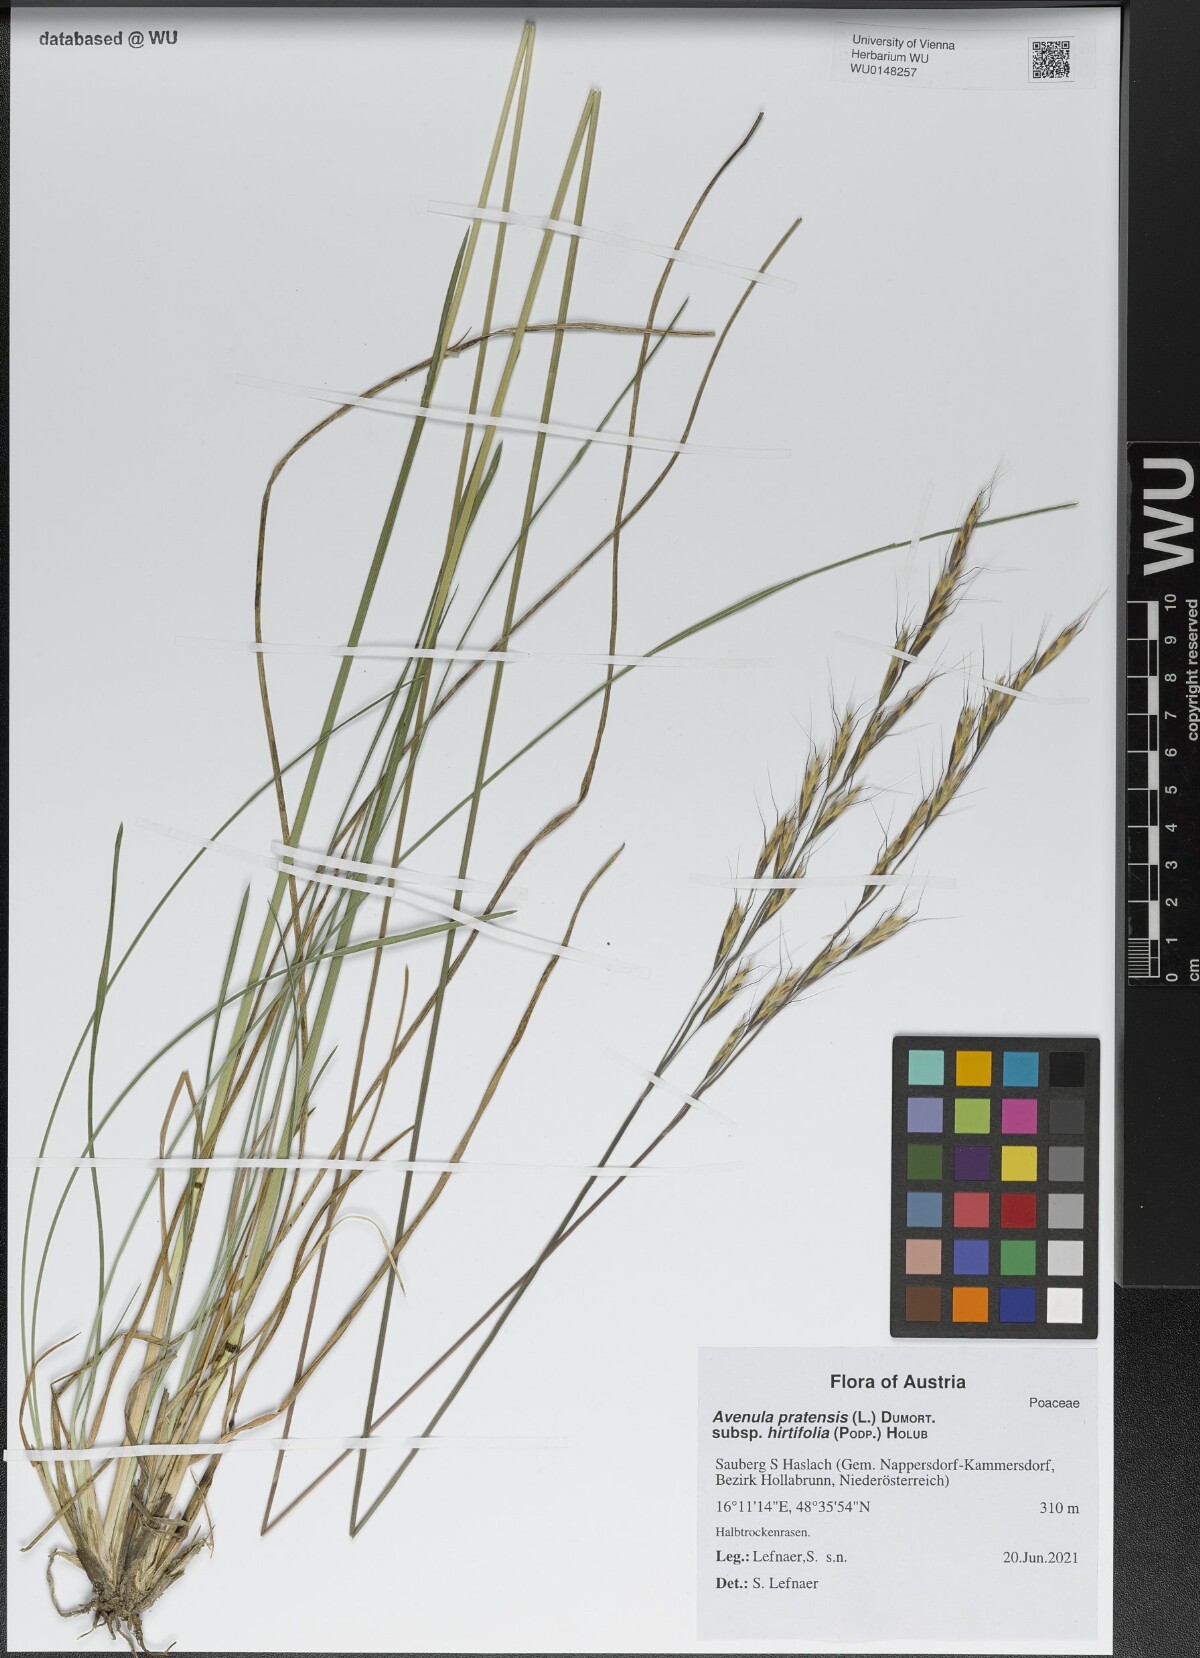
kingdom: Plantae
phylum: Tracheophyta
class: Liliopsida
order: Poales
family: Poaceae
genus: Helictochloa
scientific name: Helictochloa pratensis
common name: Meadow oat grass
